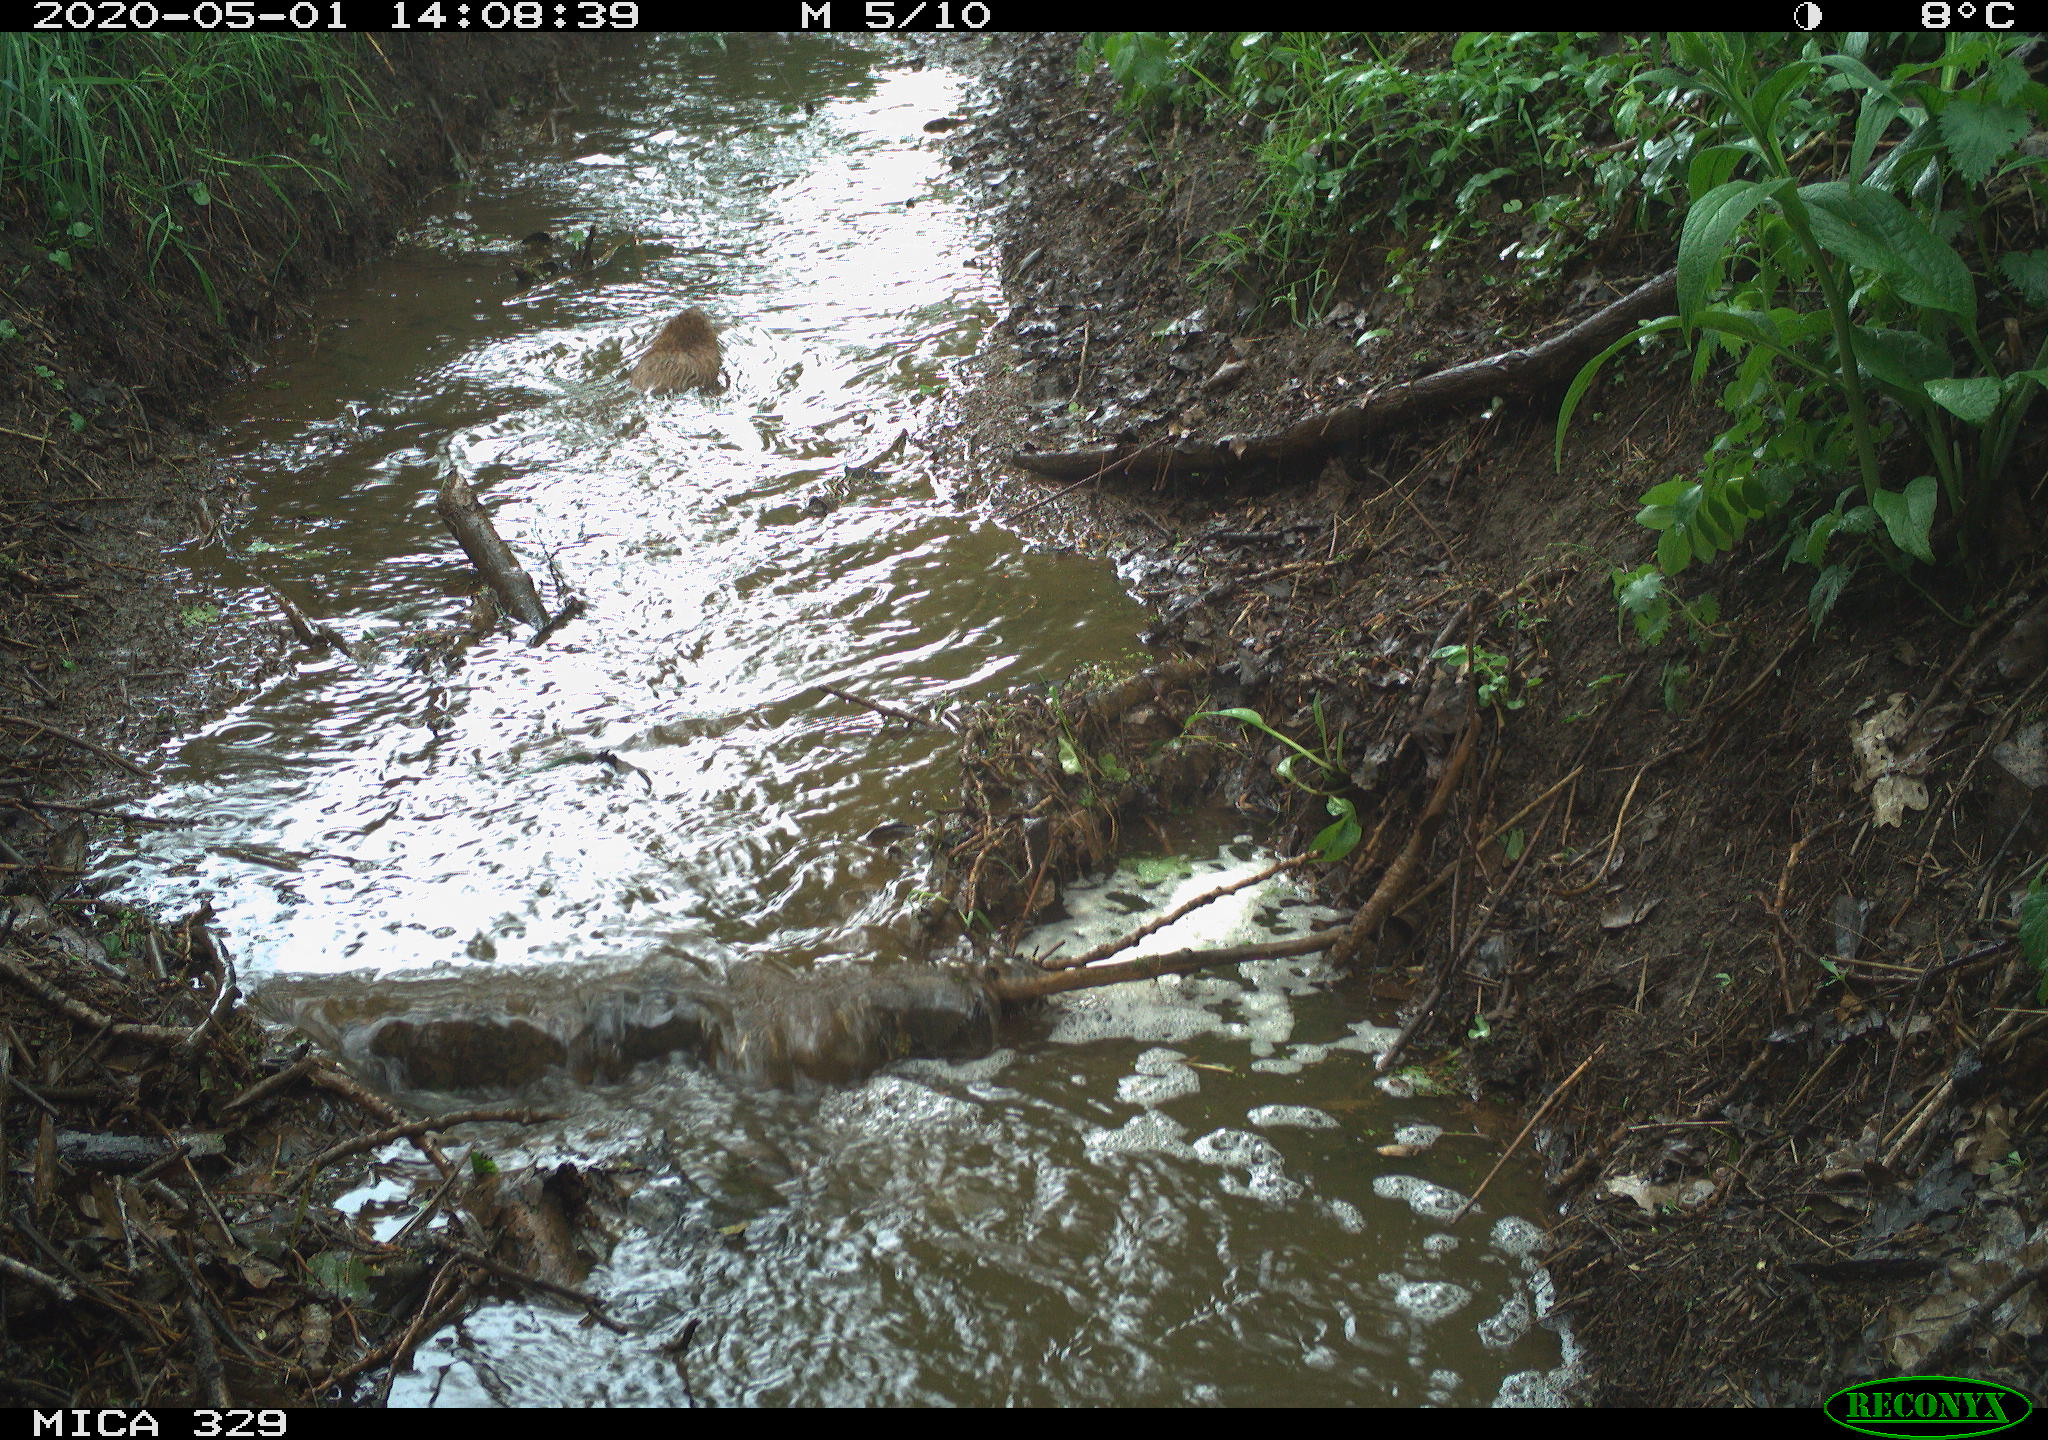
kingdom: Animalia
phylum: Chordata
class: Mammalia
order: Rodentia
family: Cricetidae
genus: Ondatra
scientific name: Ondatra zibethicus
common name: Muskrat
